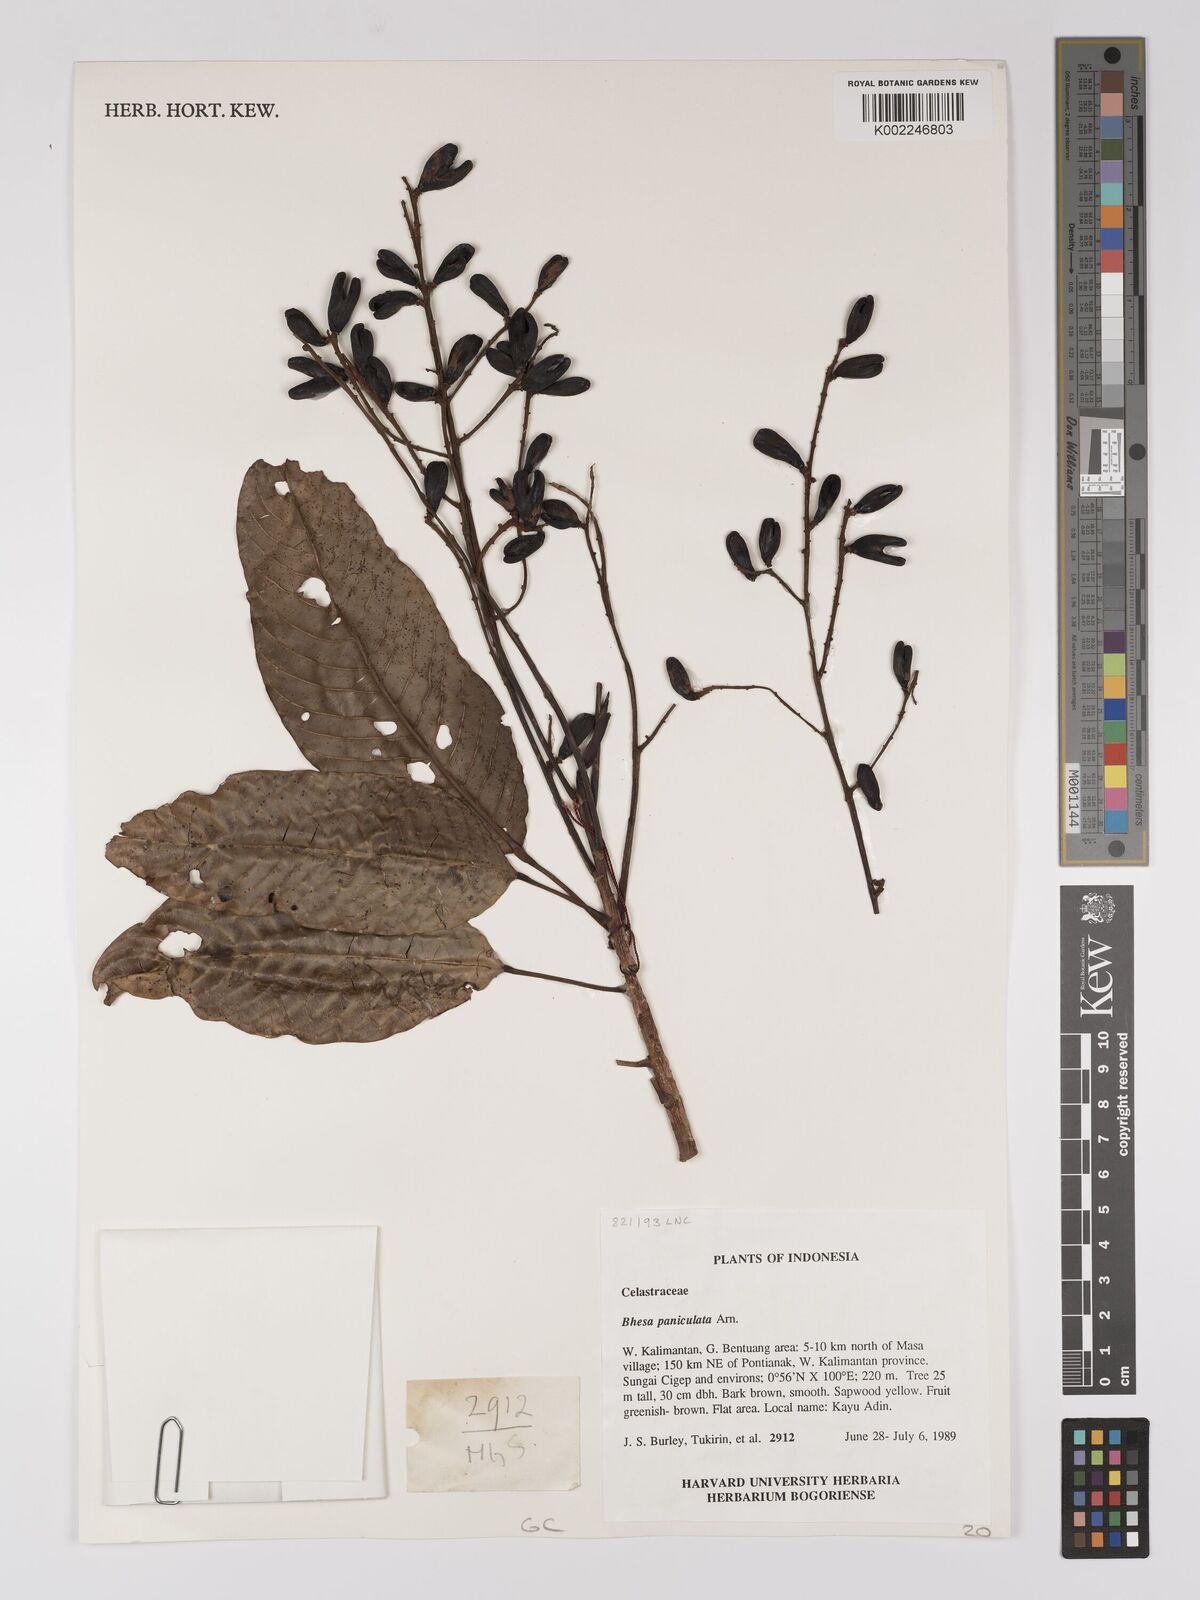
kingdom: Plantae
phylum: Tracheophyta
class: Magnoliopsida
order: Malpighiales
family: Centroplacaceae
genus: Bhesa
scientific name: Bhesa paniculata
